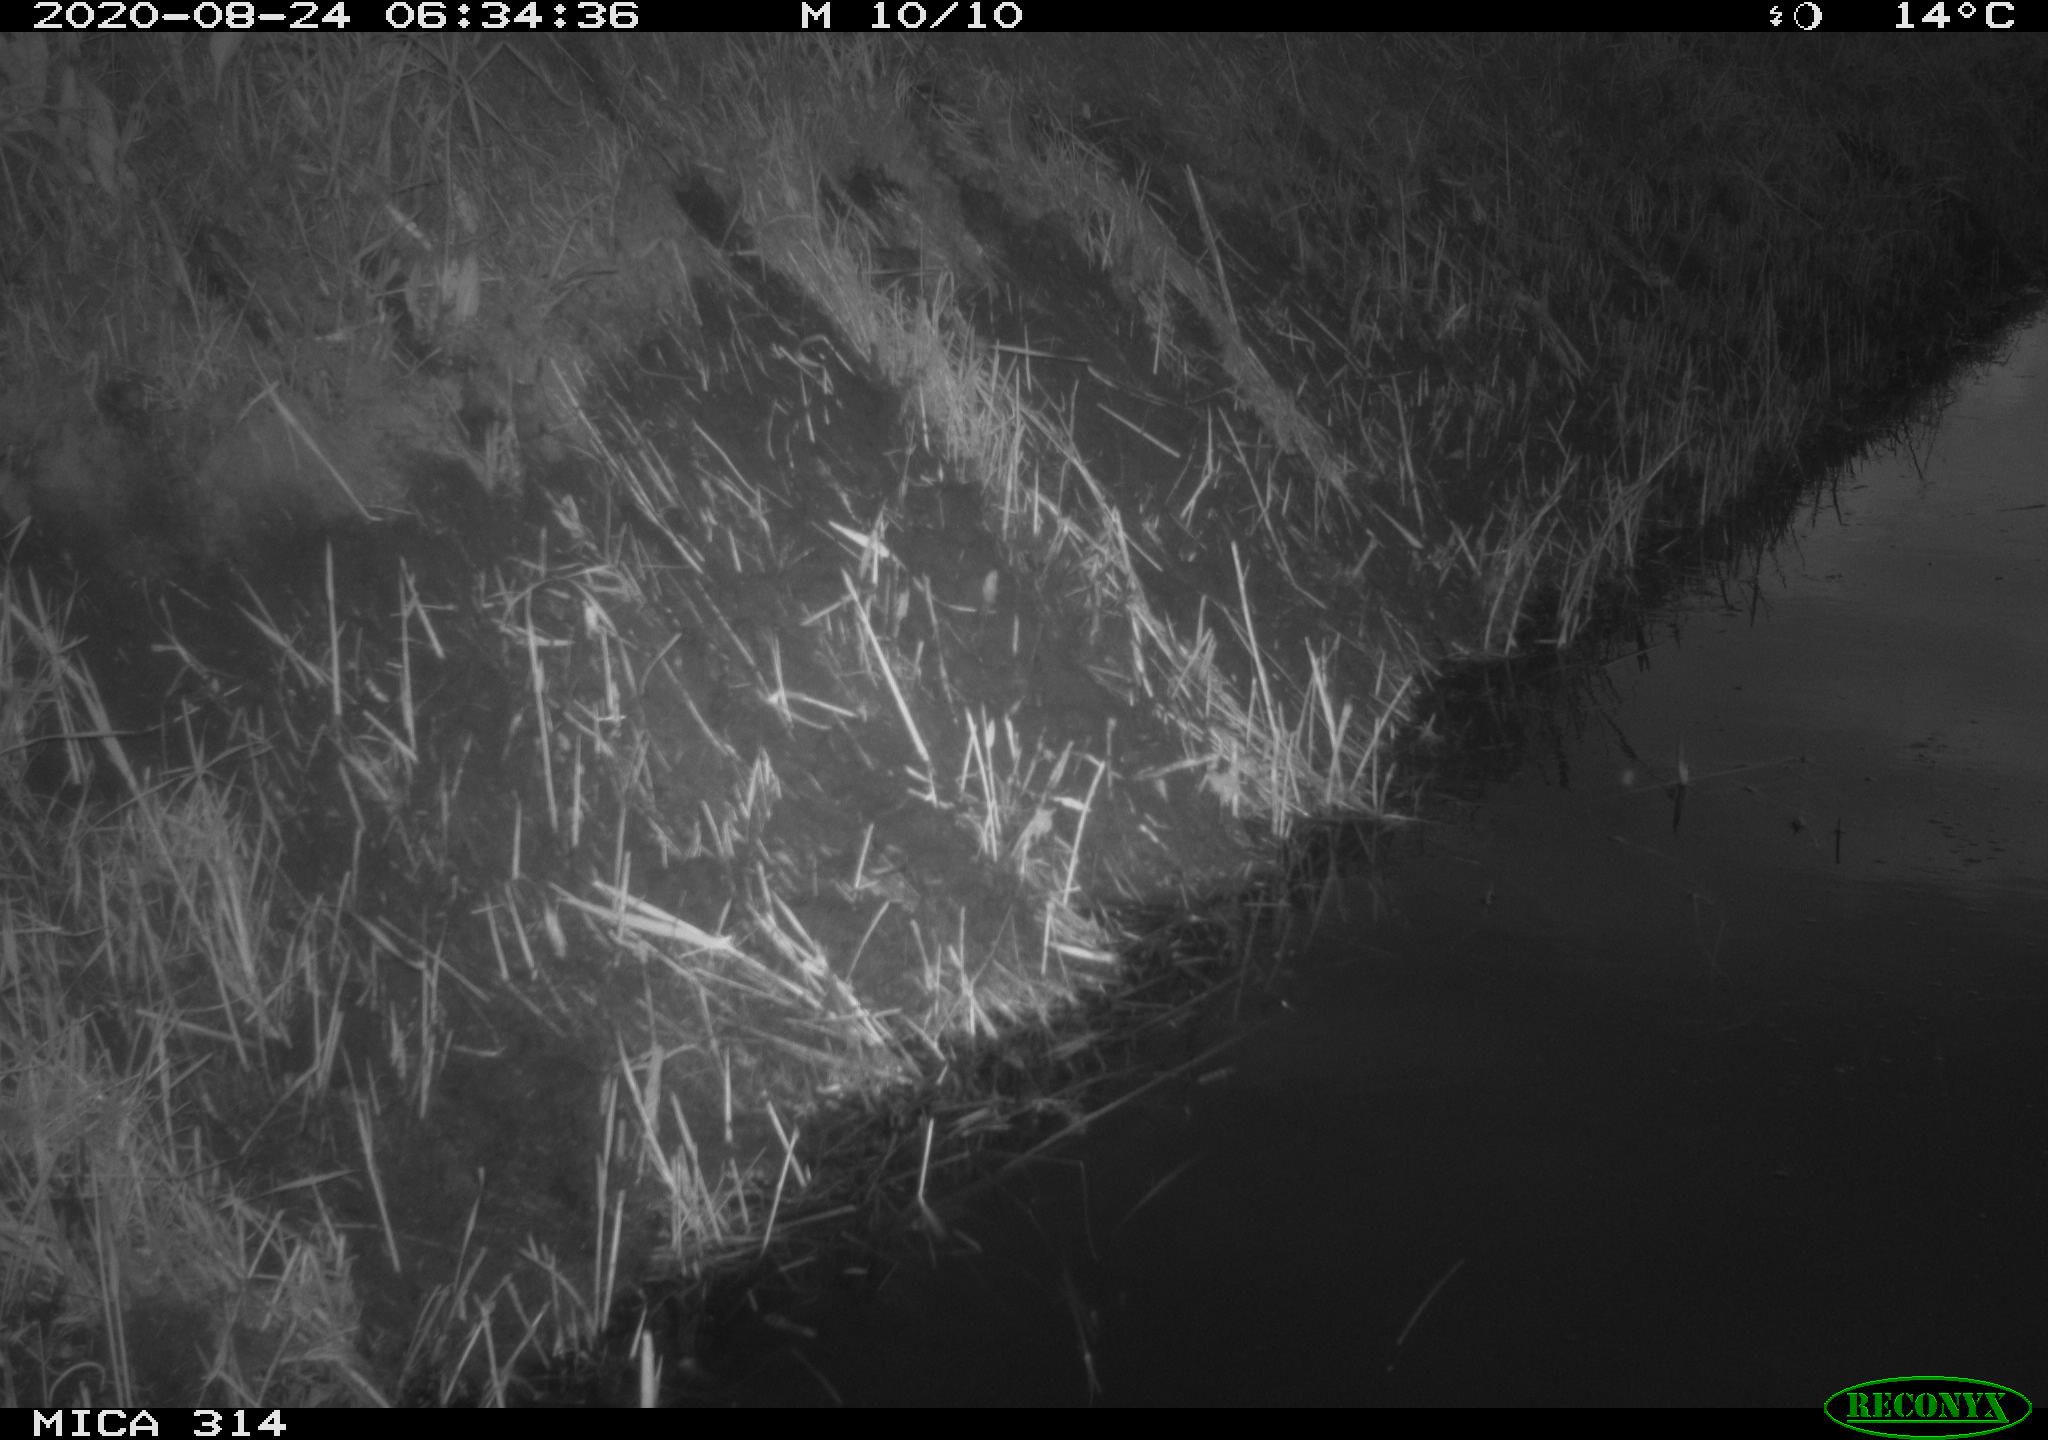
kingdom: Animalia
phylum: Chordata
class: Mammalia
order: Rodentia
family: Muridae
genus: Rattus
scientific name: Rattus norvegicus
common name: Brown rat
